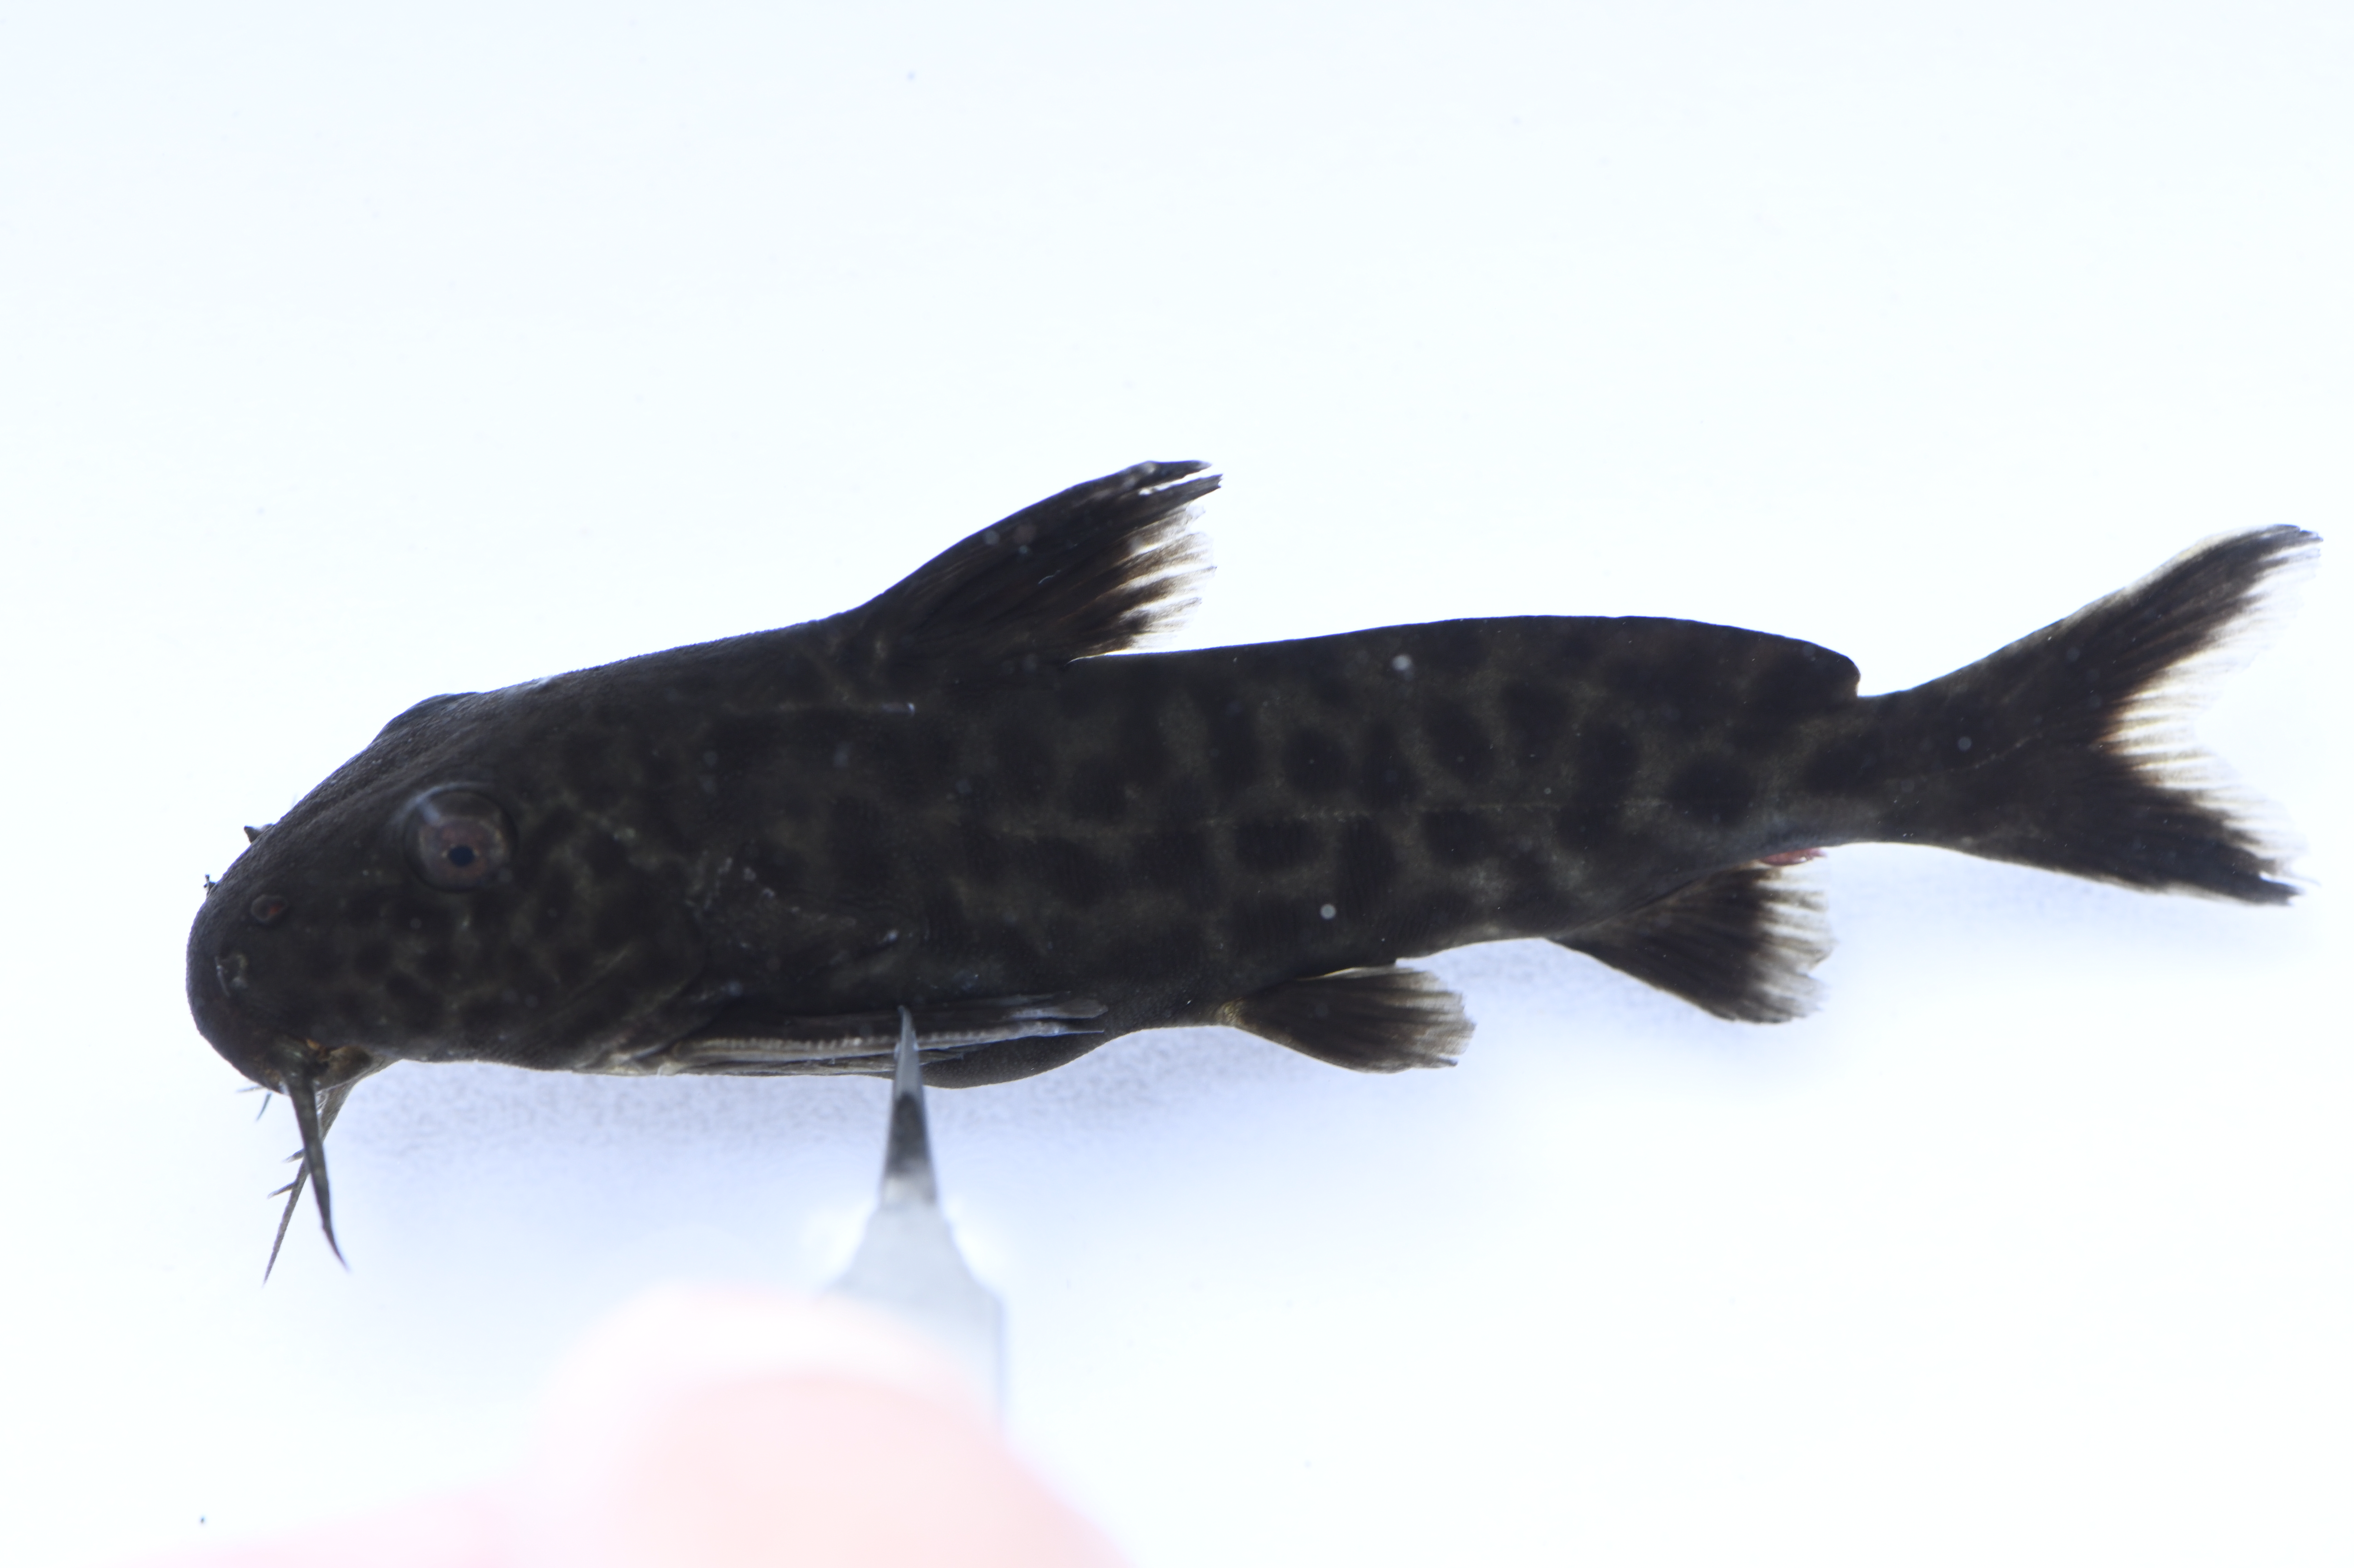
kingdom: Animalia
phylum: Chordata
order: Siluriformes
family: Mochokidae
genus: Synodontis
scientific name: Synodontis polli
